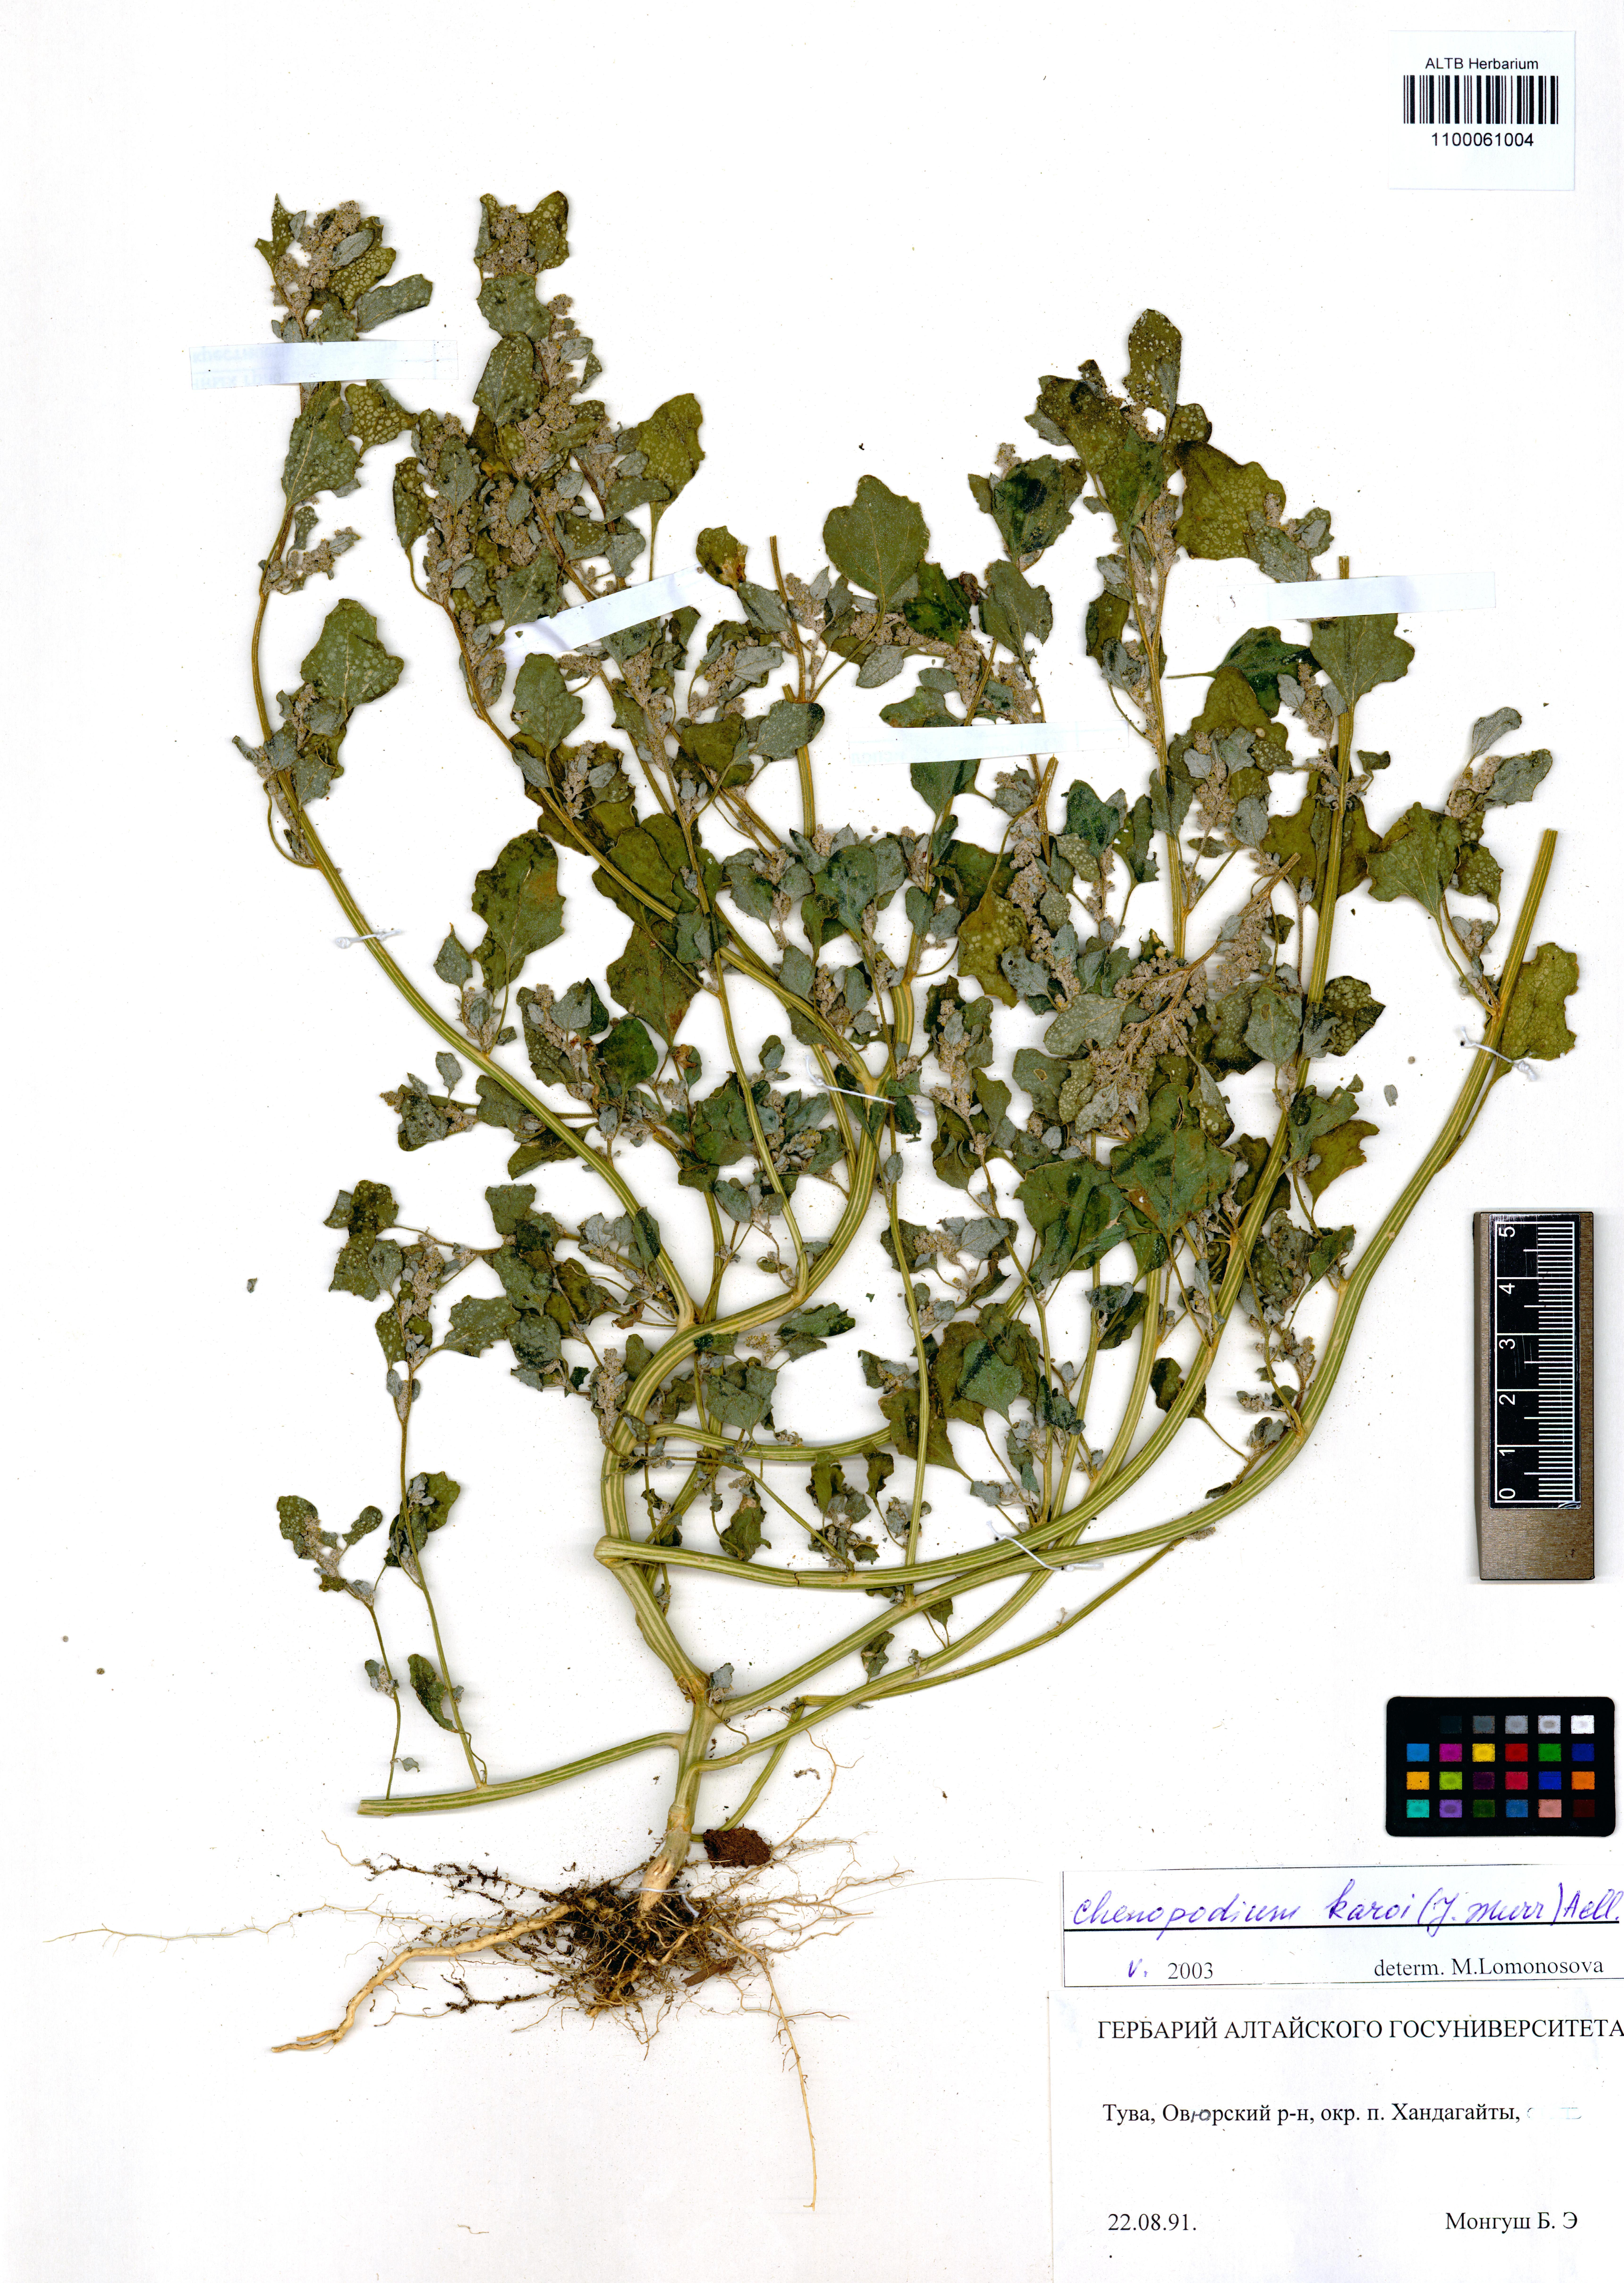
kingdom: Plantae
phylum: Tracheophyta
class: Magnoliopsida
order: Caryophyllales
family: Amaranthaceae
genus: Chenopodium
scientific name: Chenopodium karoi
